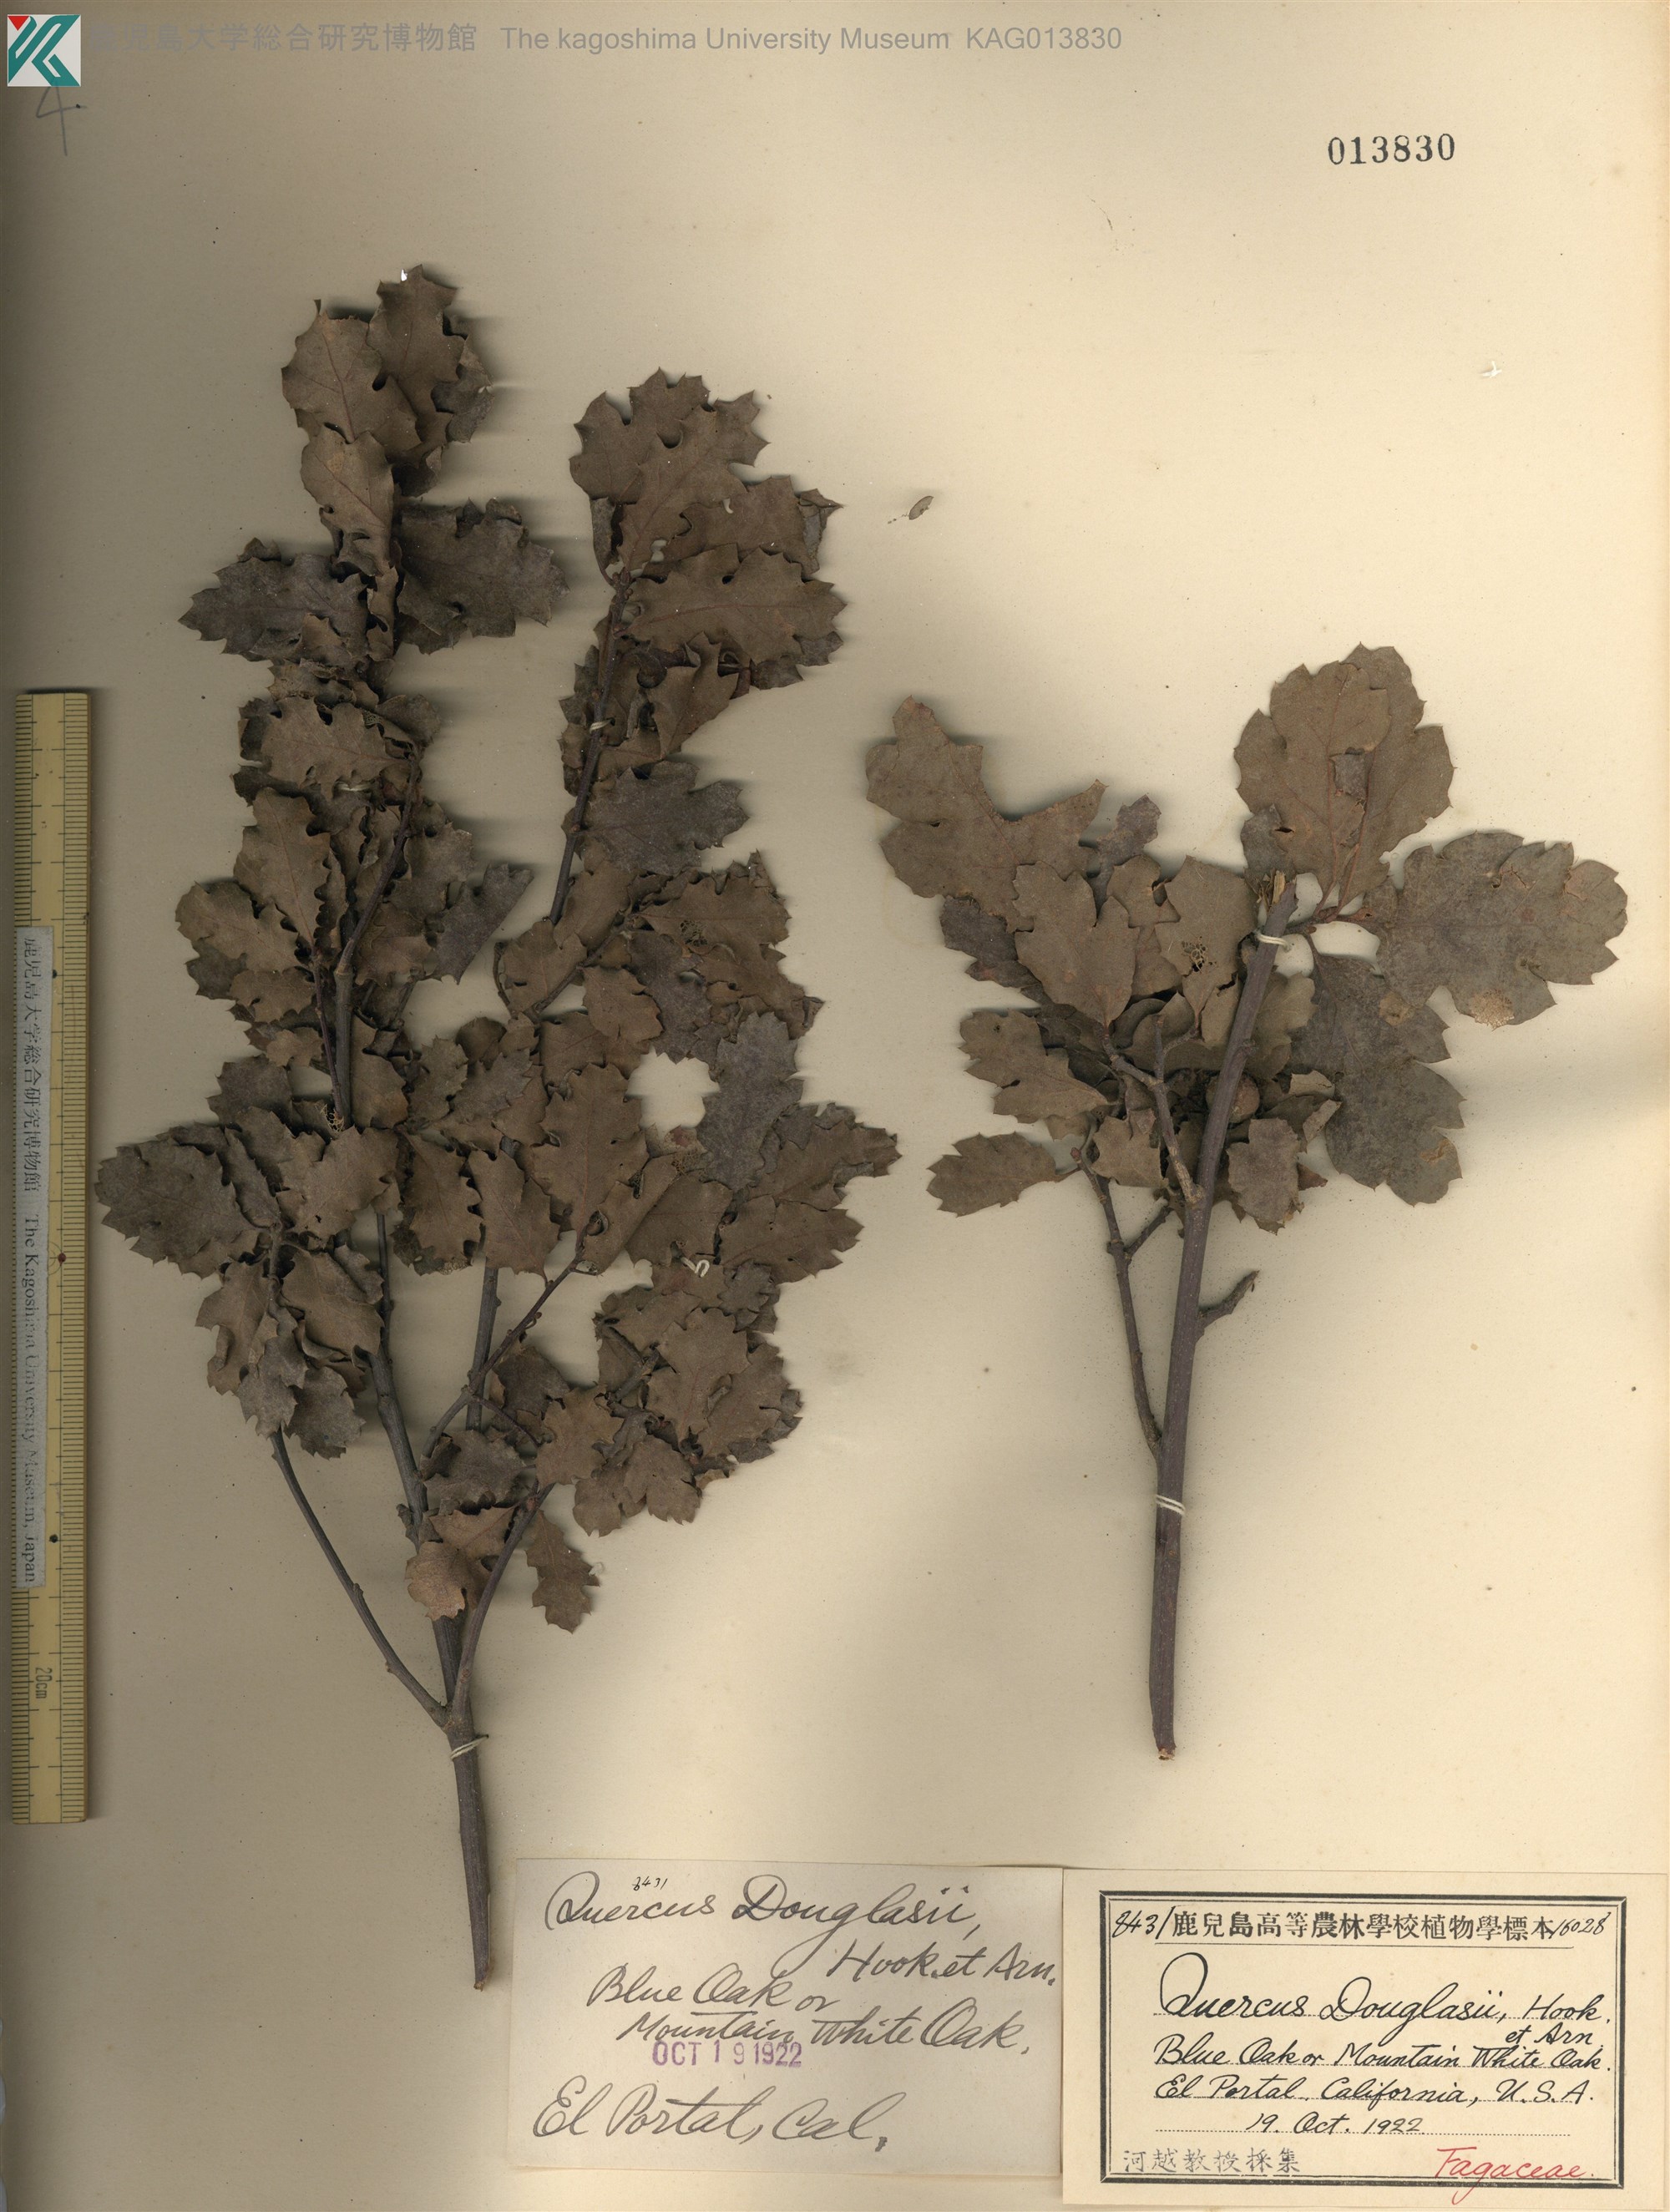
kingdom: Plantae
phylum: Tracheophyta
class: Magnoliopsida
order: Fagales
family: Fagaceae
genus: Quercus
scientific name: Quercus douglasii
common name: Blue oak
